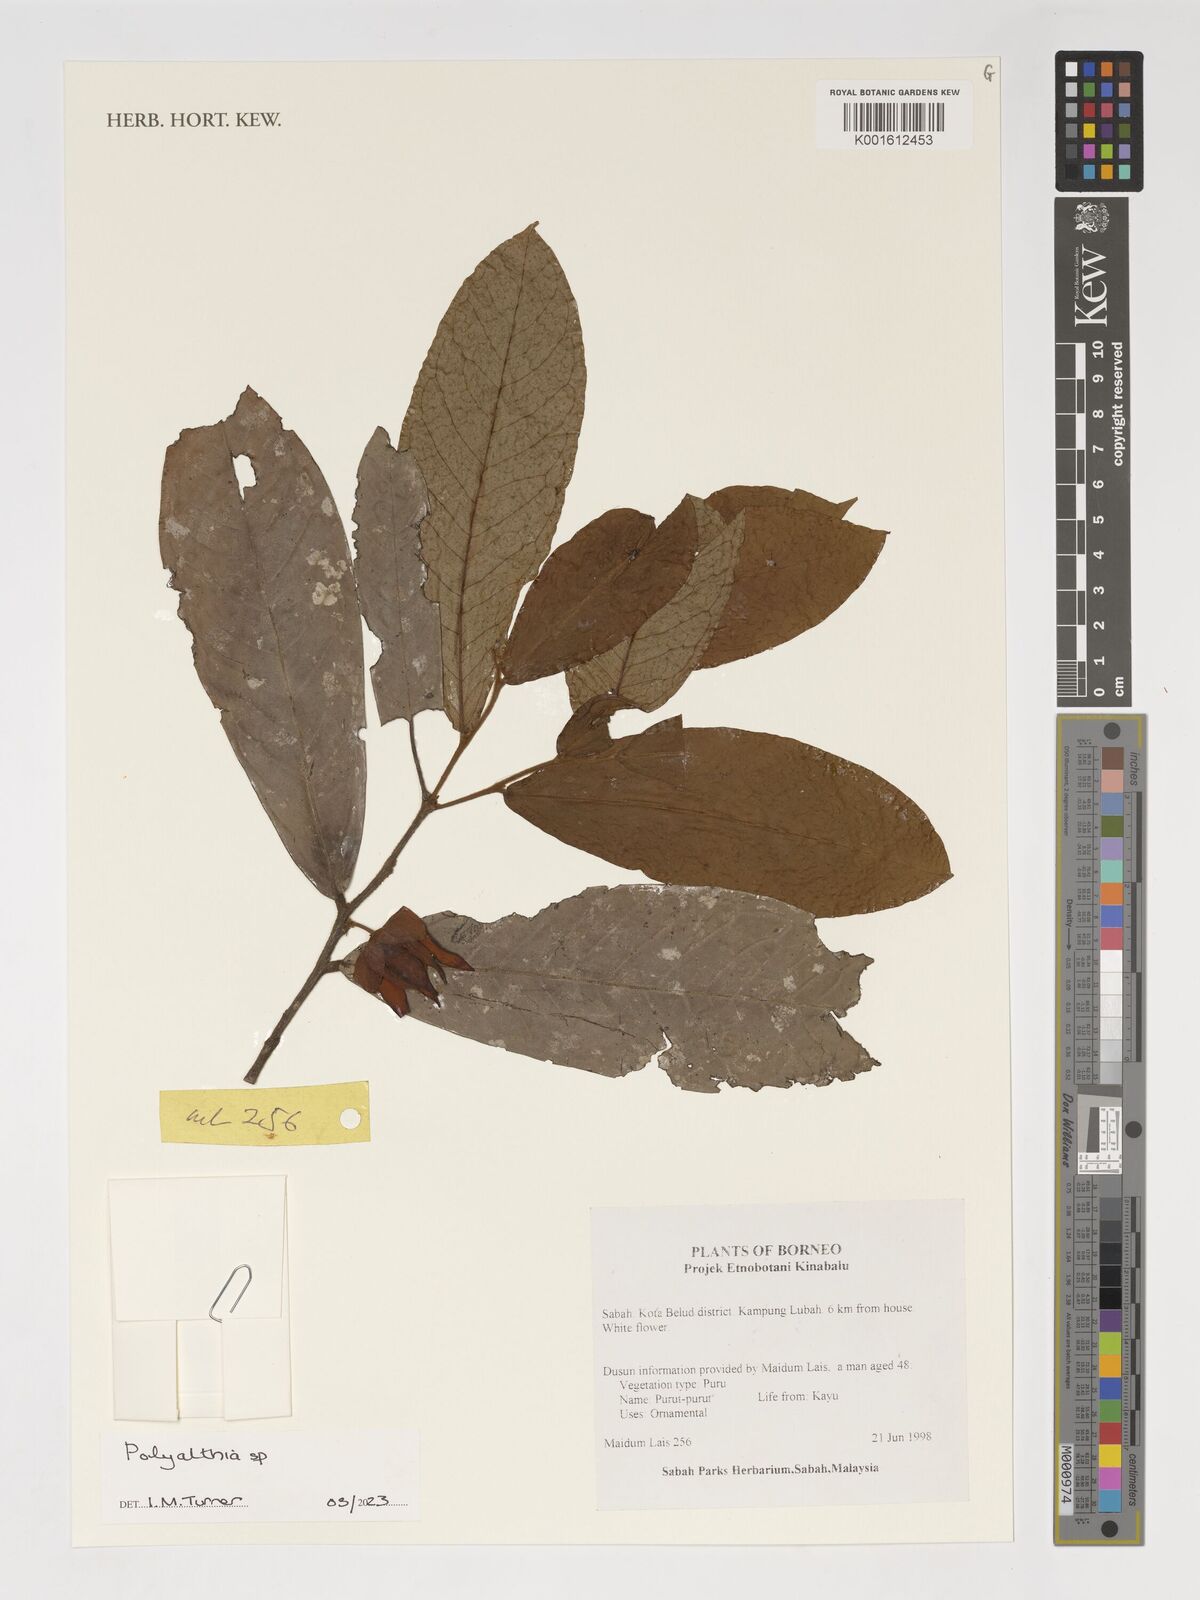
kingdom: Plantae
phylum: Tracheophyta
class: Magnoliopsida
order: Magnoliales
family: Annonaceae
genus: Polyalthia
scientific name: Polyalthia
